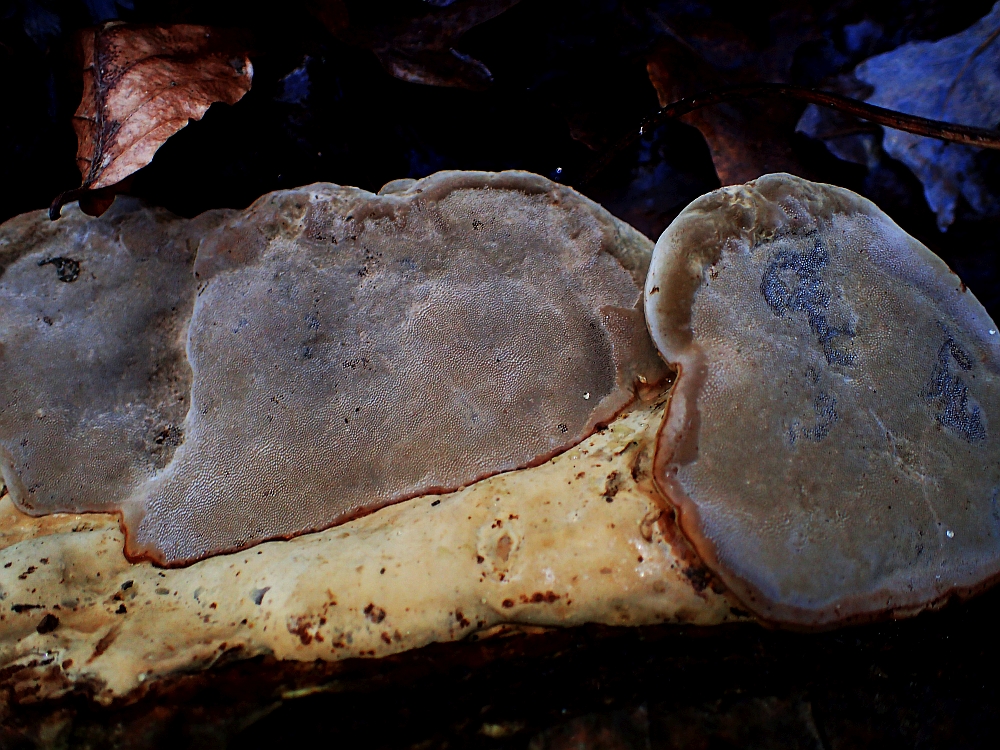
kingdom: Fungi
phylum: Basidiomycota
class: Agaricomycetes
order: Polyporales
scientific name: Polyporales
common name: poresvampordenen
